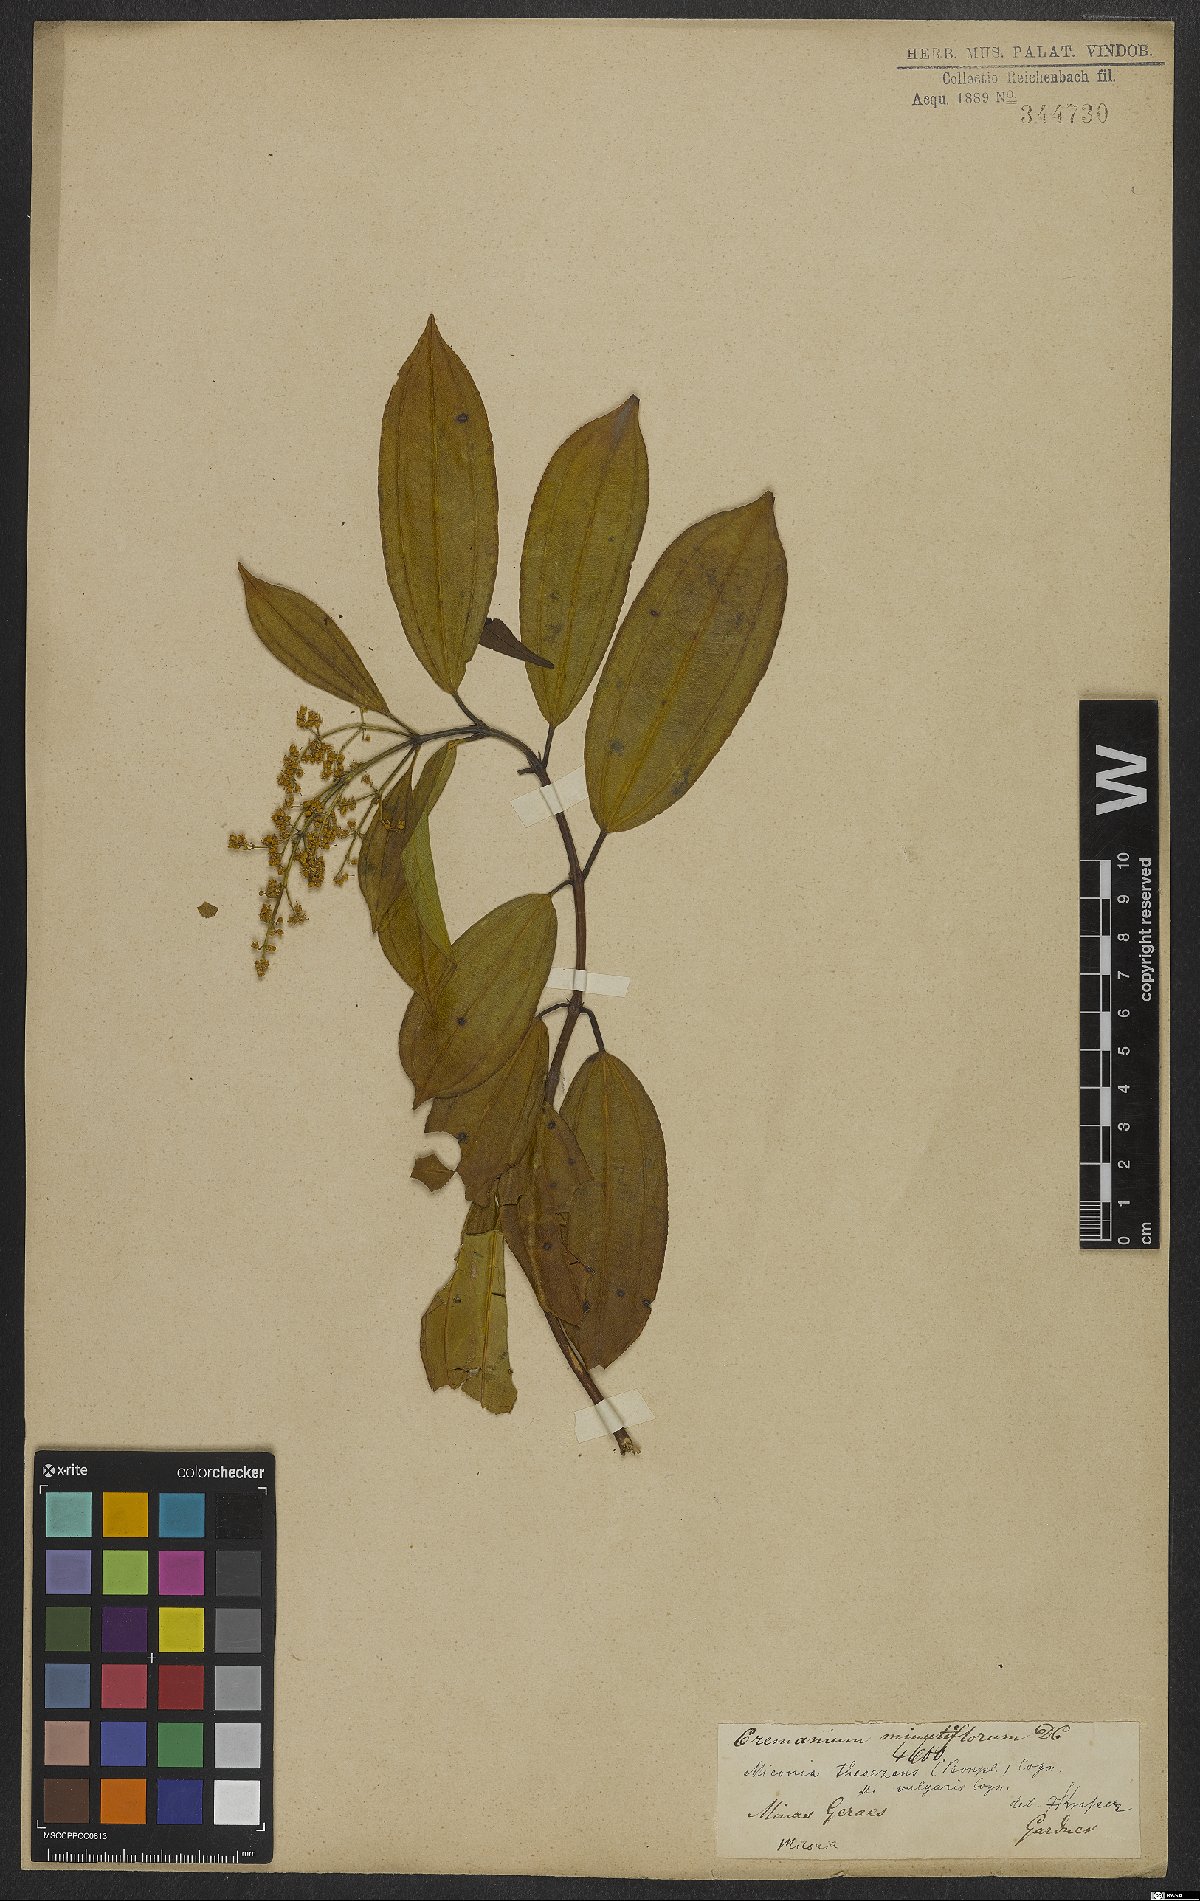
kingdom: Plantae
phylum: Tracheophyta
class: Magnoliopsida
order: Myrtales
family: Melastomataceae
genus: Miconia
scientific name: Miconia theizans
